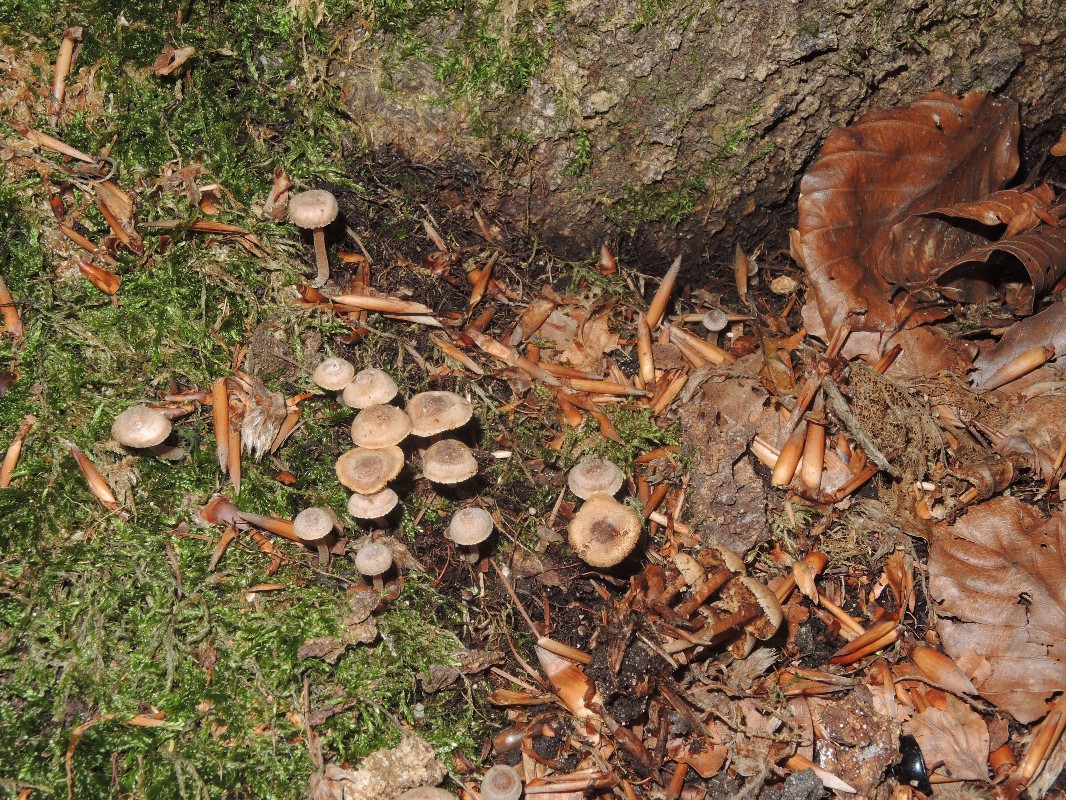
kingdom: Fungi
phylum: Basidiomycota
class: Agaricomycetes
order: Agaricales
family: Inocybaceae
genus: Inocybe
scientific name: Inocybe petiginosa
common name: liden trævlhat
